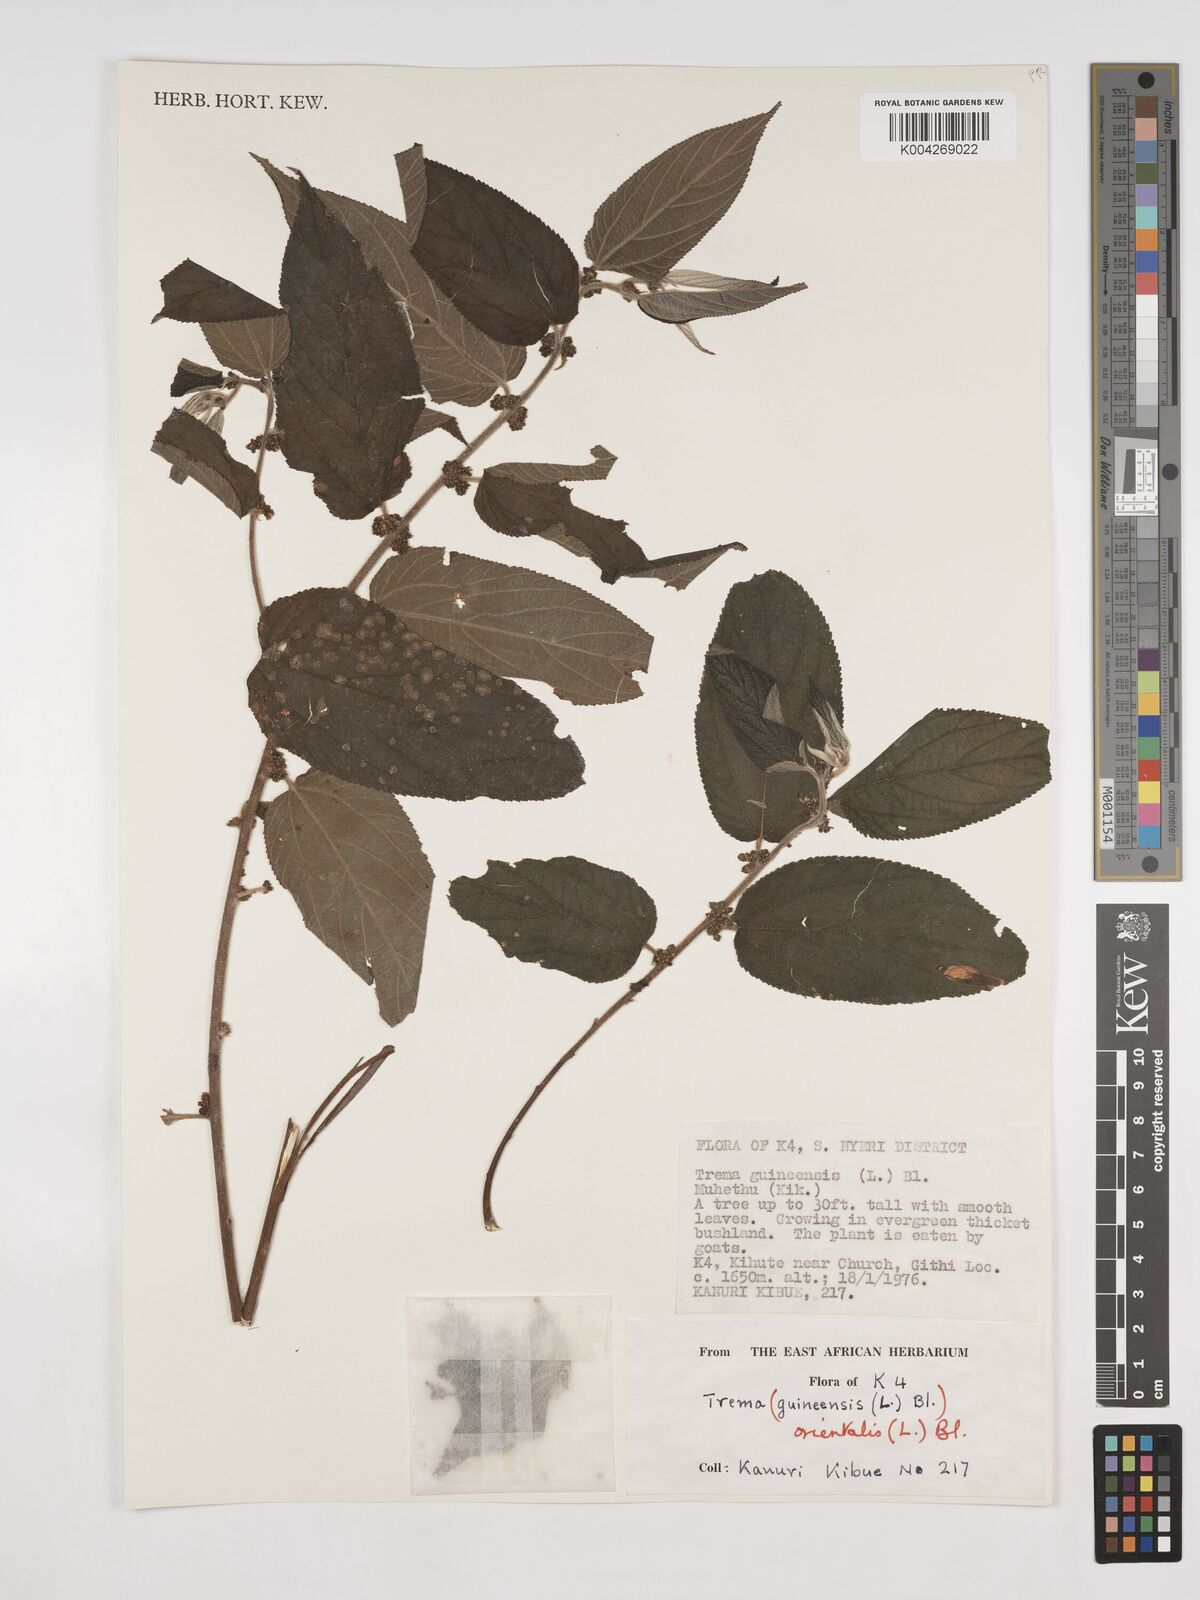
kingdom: Plantae
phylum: Tracheophyta
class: Magnoliopsida
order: Rosales
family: Cannabaceae
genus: Trema
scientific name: Trema orientale
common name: Indian charcoal tree
